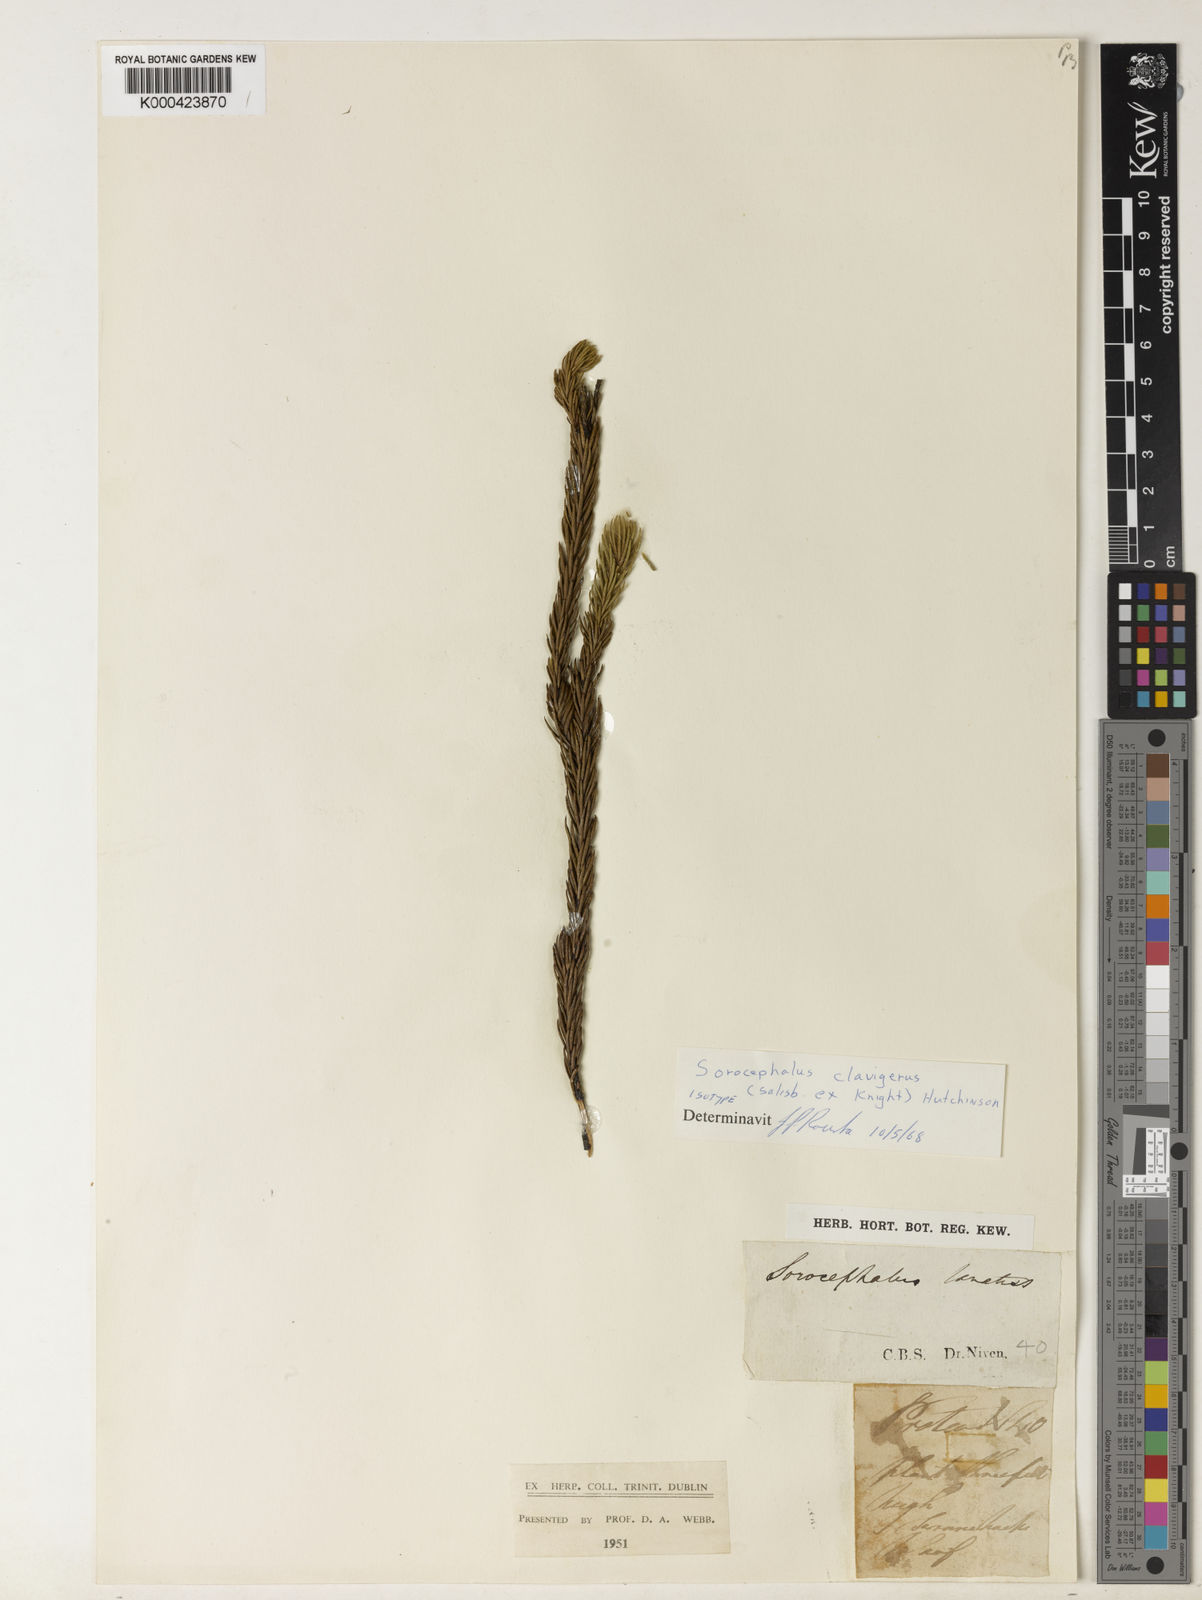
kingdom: Plantae
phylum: Tracheophyta
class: Magnoliopsida
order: Proteales
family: Proteaceae
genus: Sorocephalus
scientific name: Sorocephalus
